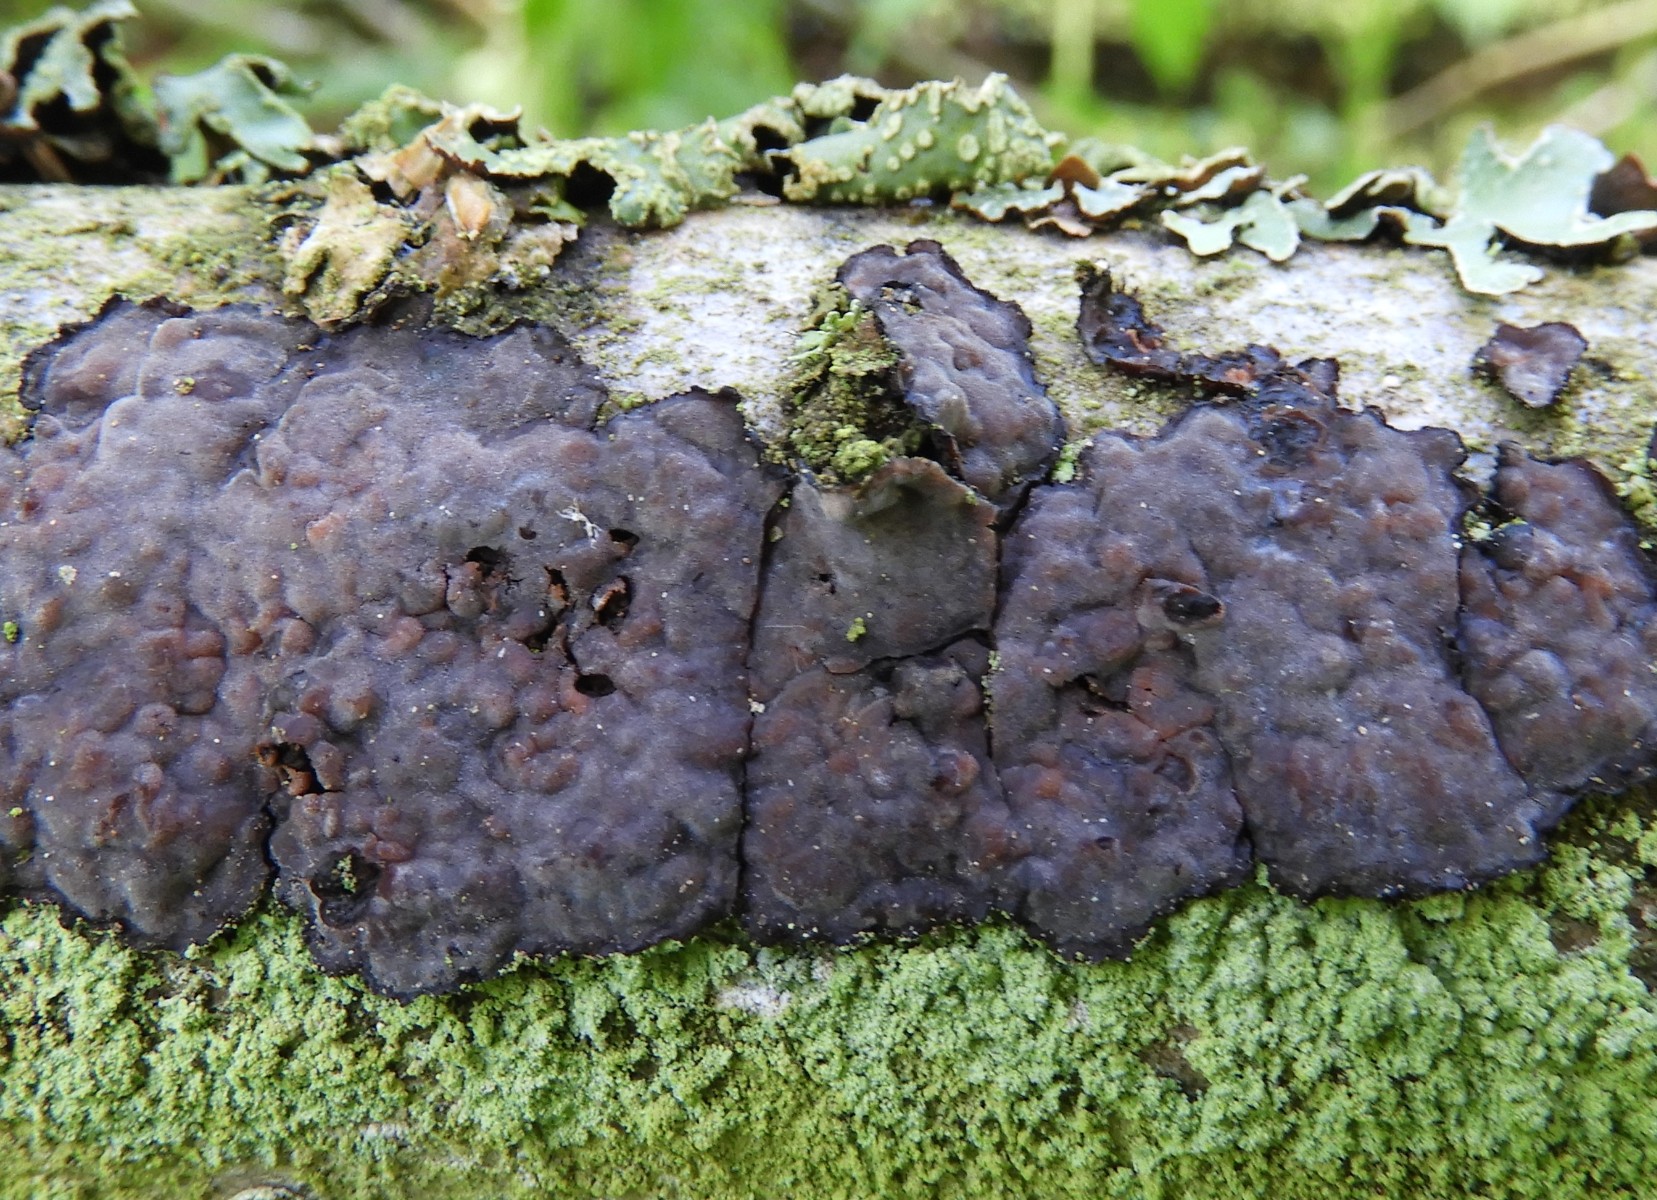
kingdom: Fungi
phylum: Basidiomycota
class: Agaricomycetes
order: Russulales
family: Peniophoraceae
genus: Peniophora
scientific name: Peniophora quercina
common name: ege-voksskind
